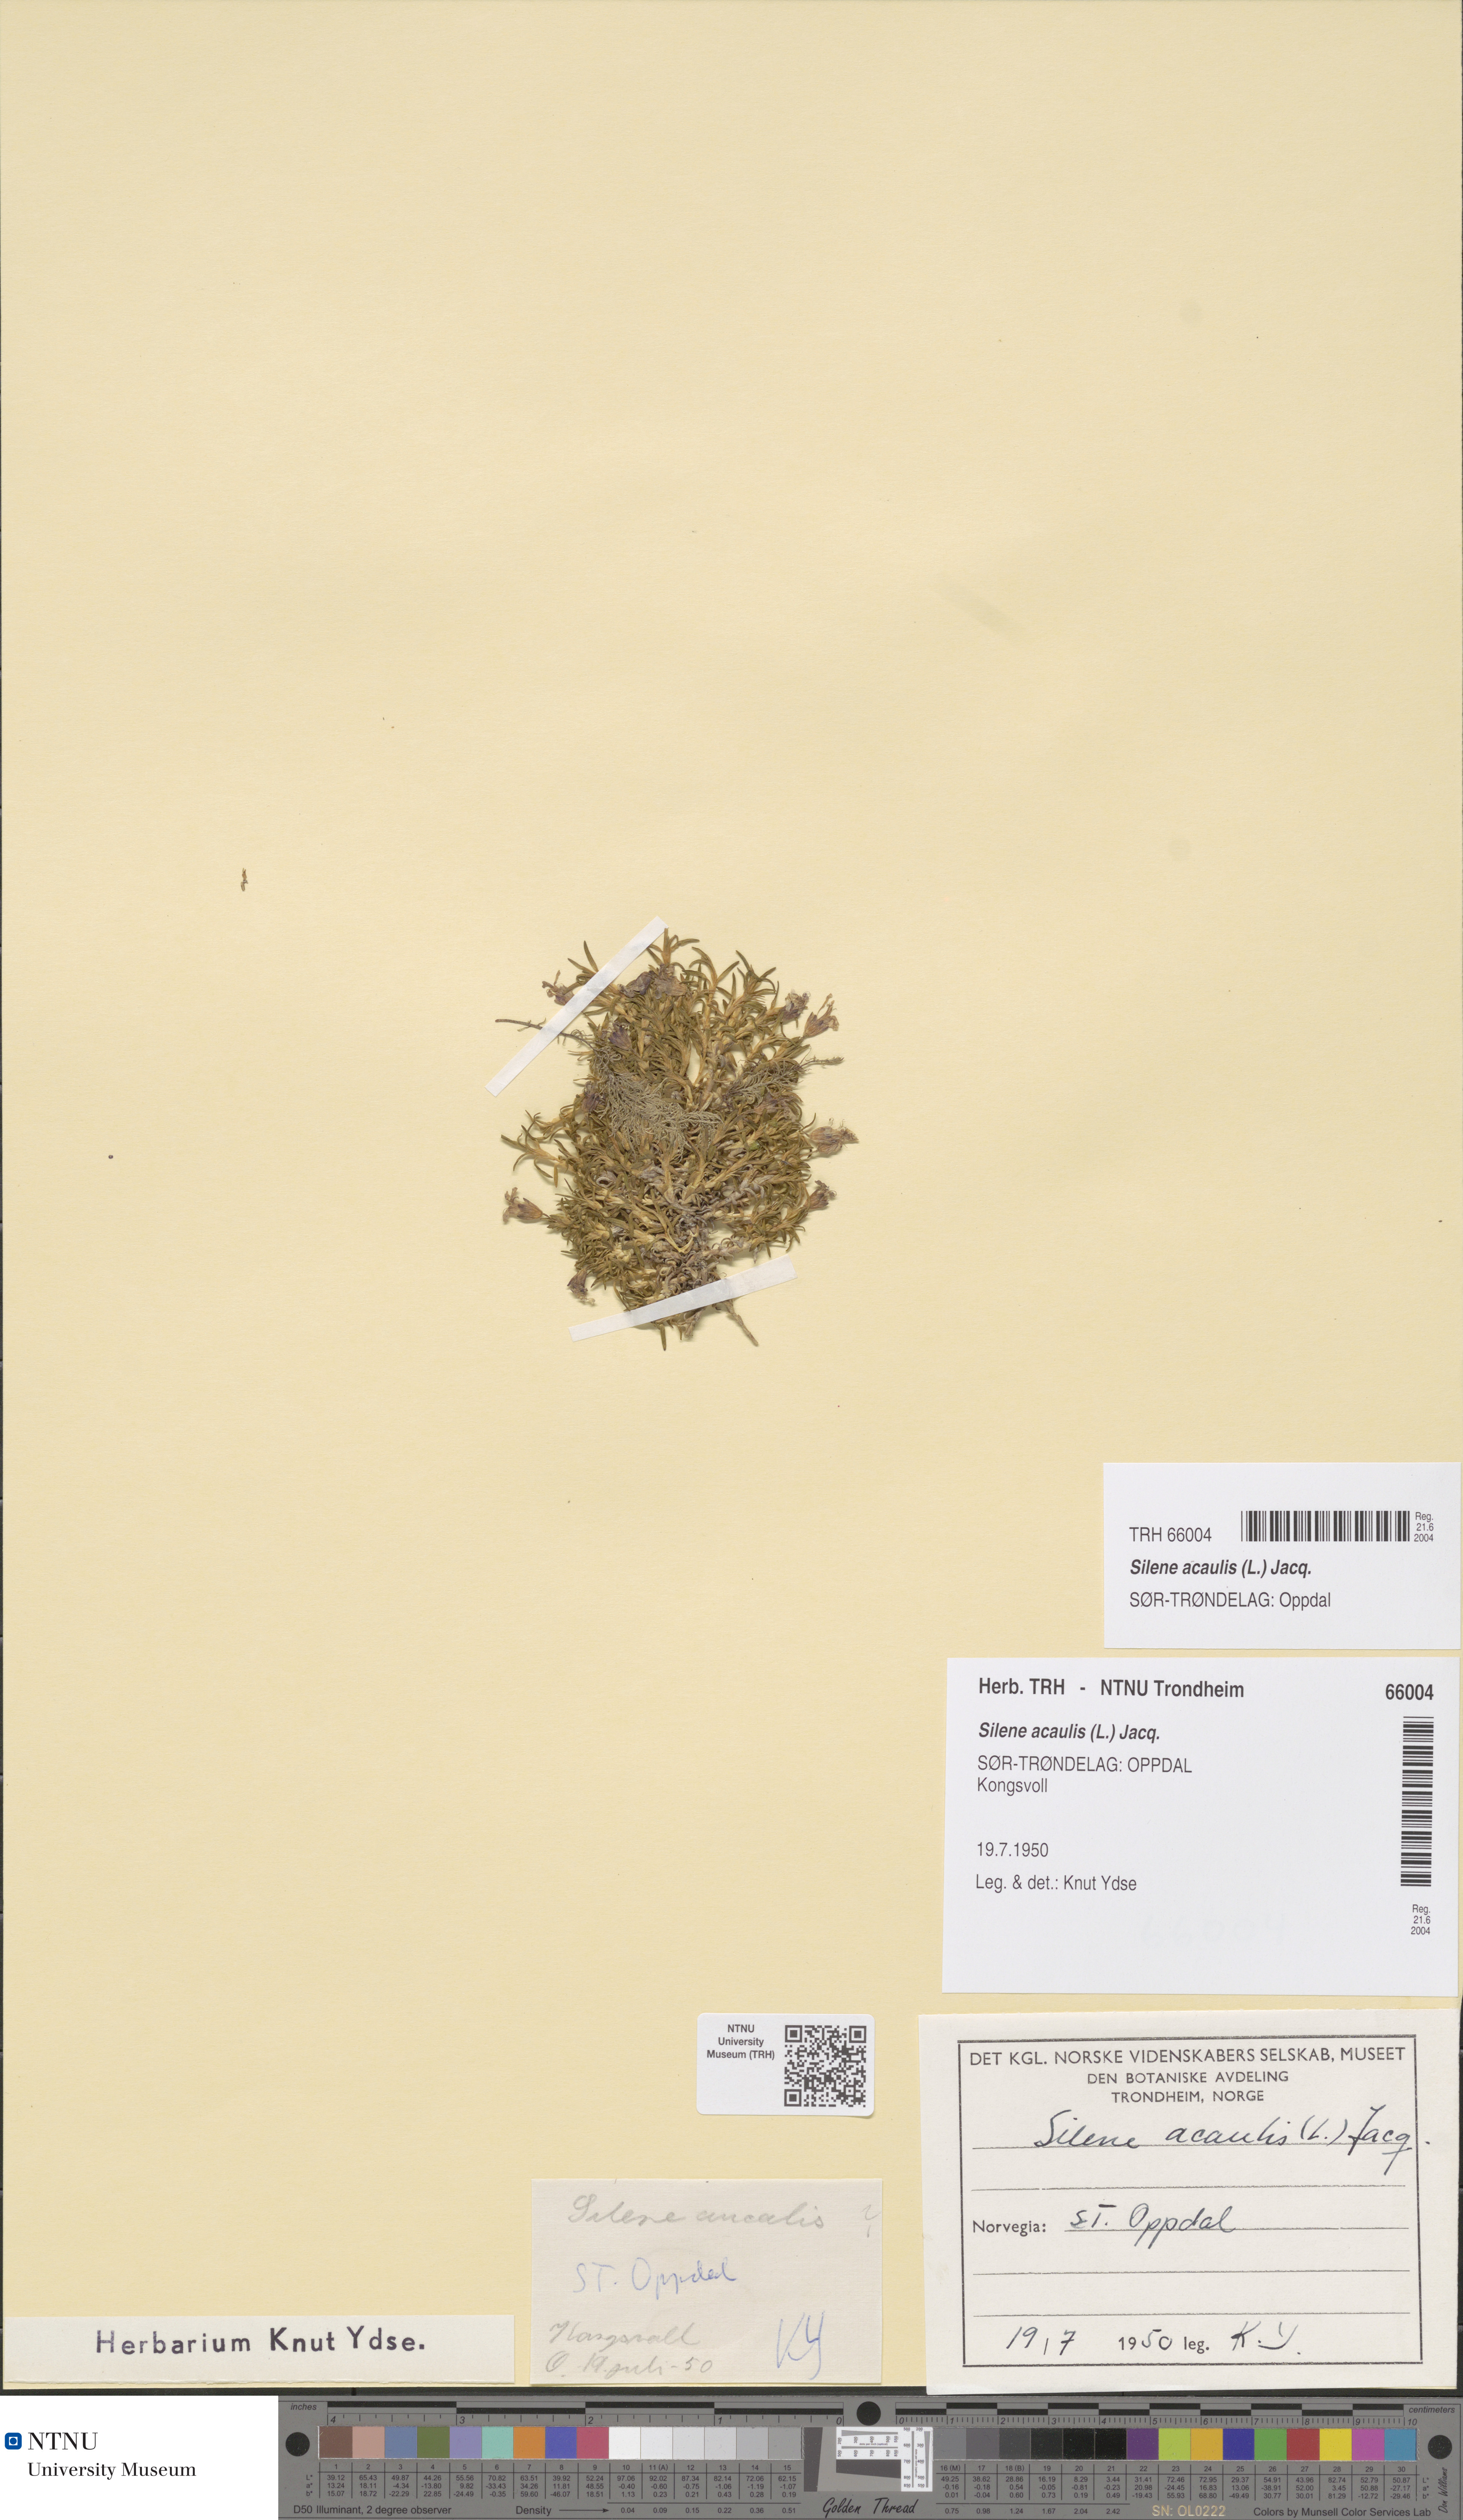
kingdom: Plantae
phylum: Tracheophyta
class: Magnoliopsida
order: Caryophyllales
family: Caryophyllaceae
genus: Silene
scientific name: Silene acaulis
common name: Moss campion
